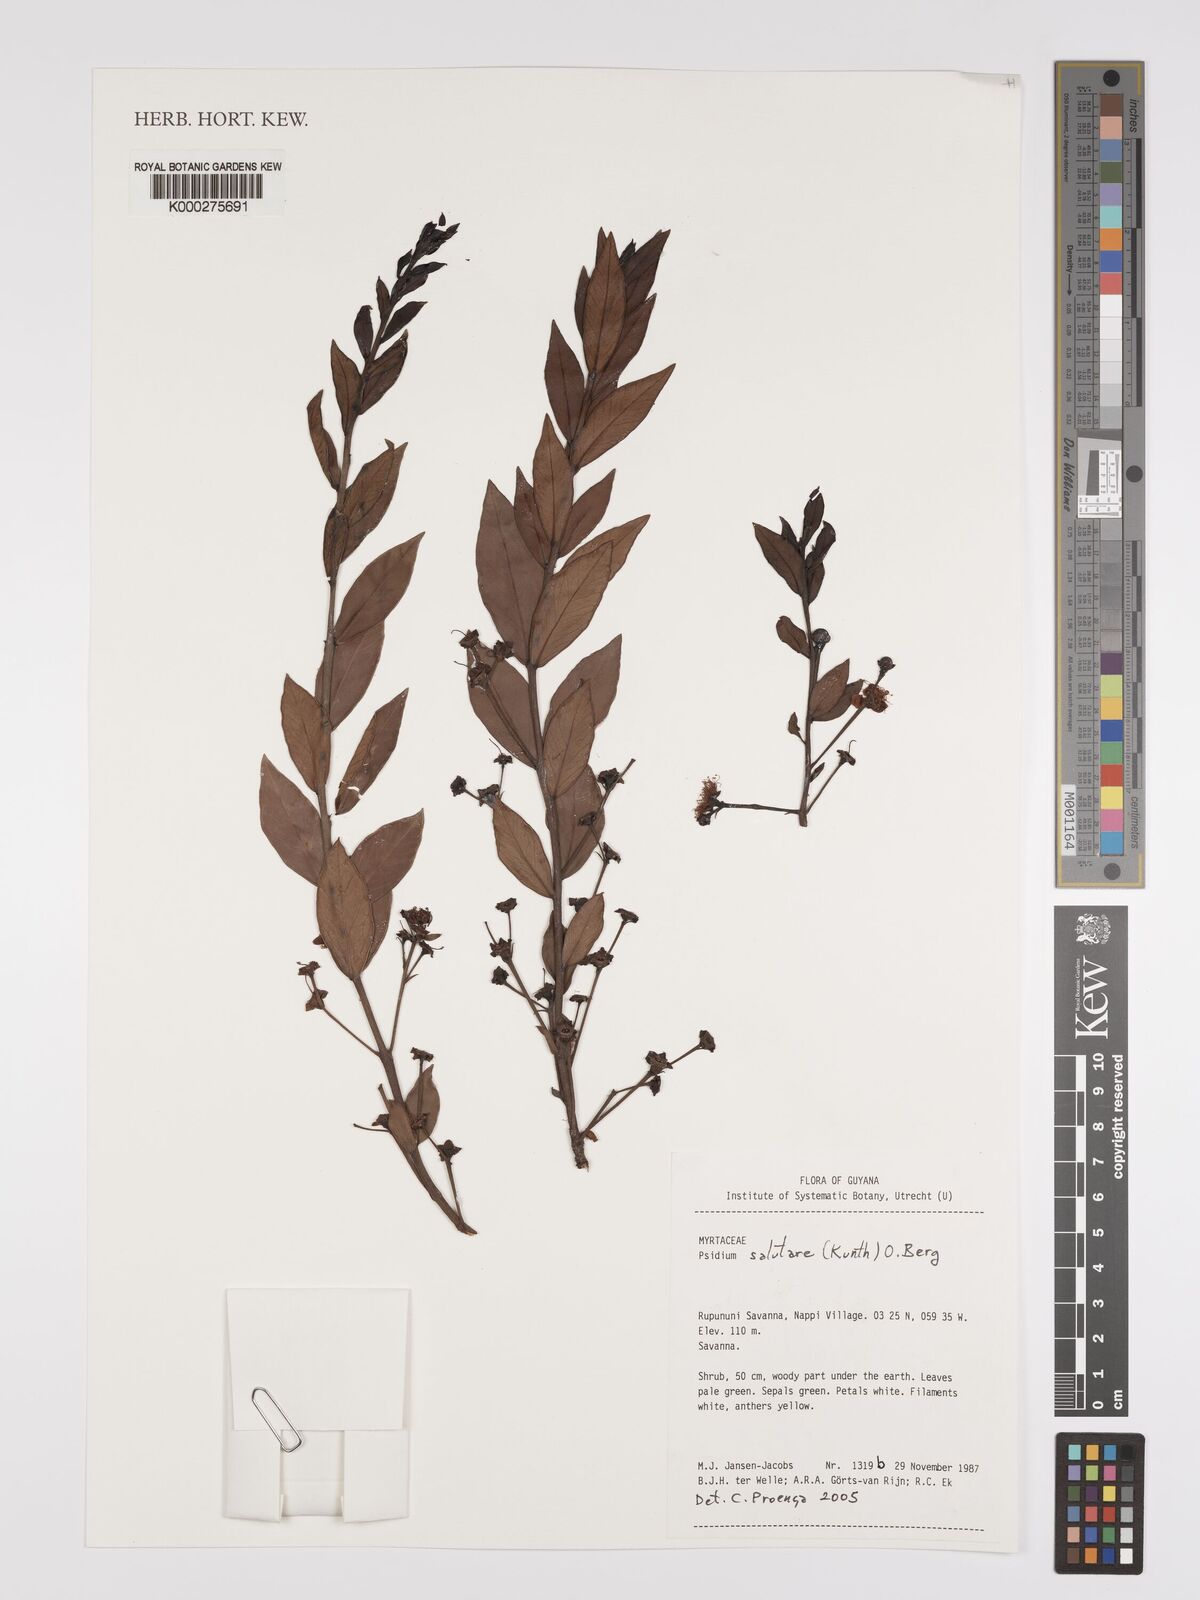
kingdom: Plantae
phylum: Tracheophyta
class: Magnoliopsida
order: Myrtales
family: Myrtaceae
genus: Psidium
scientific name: Psidium salutare
